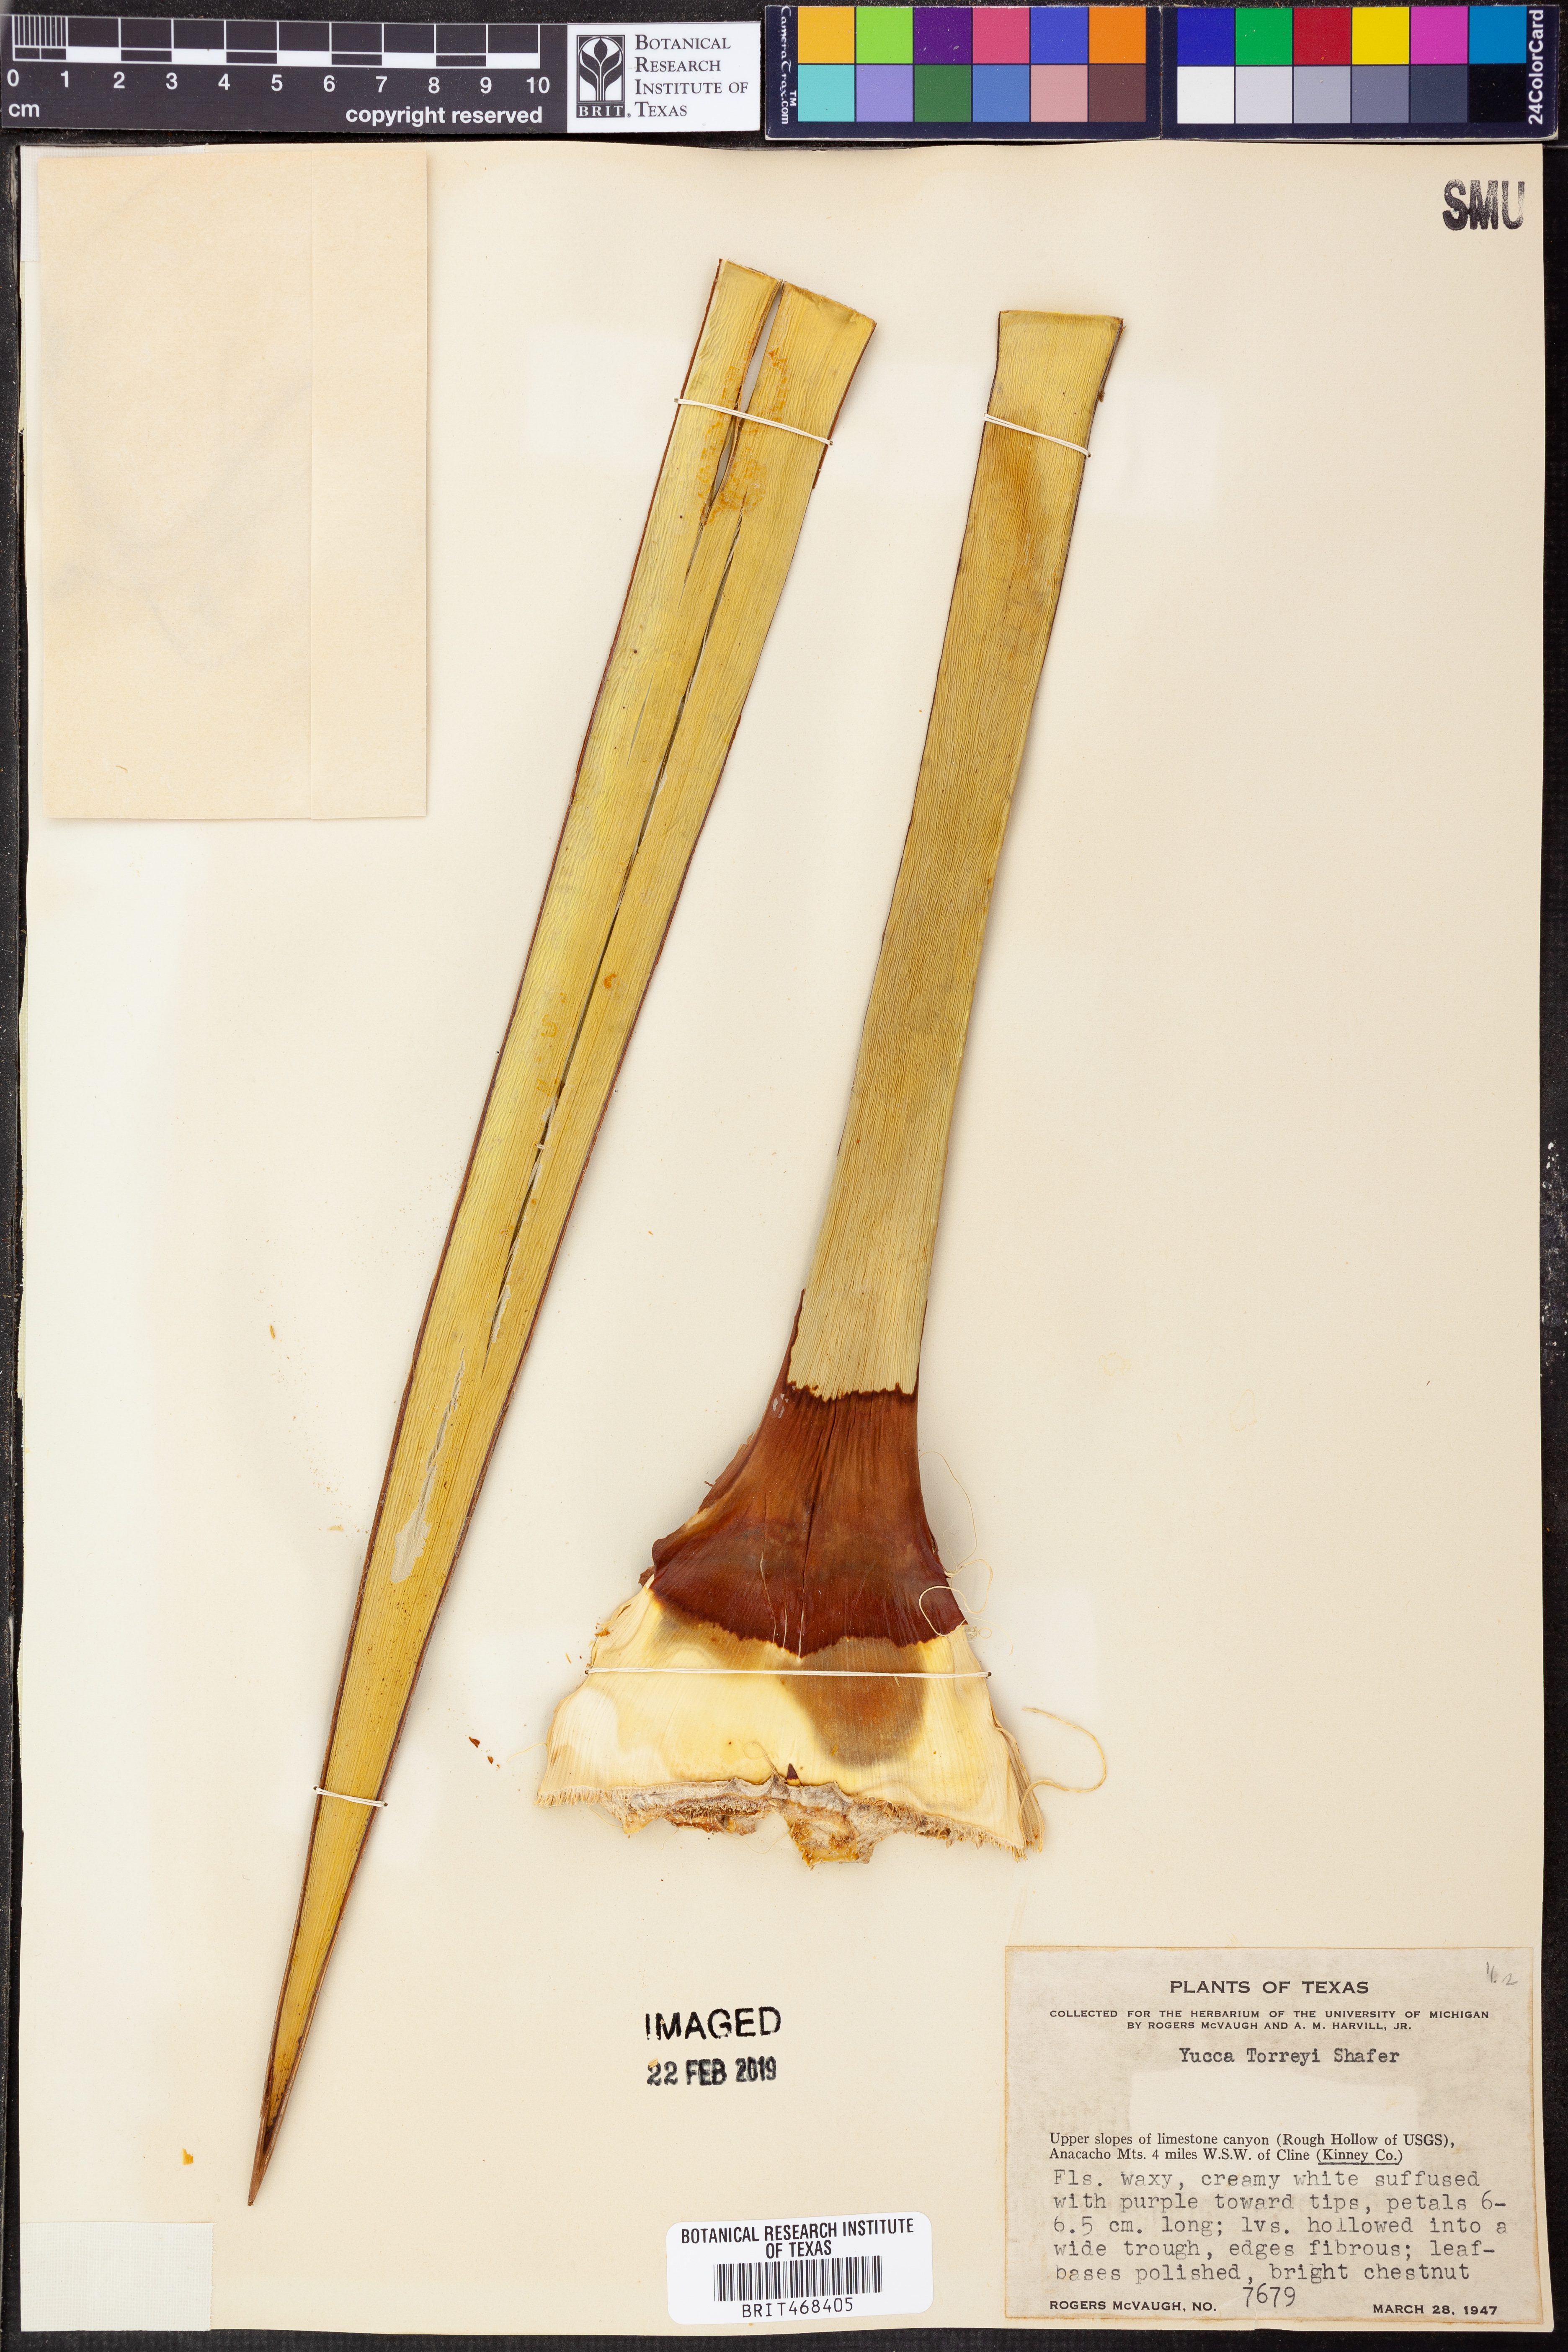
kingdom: Plantae
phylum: Tracheophyta
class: Liliopsida
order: Asparagales
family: Asparagaceae
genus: Yucca
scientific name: Yucca treculiana
